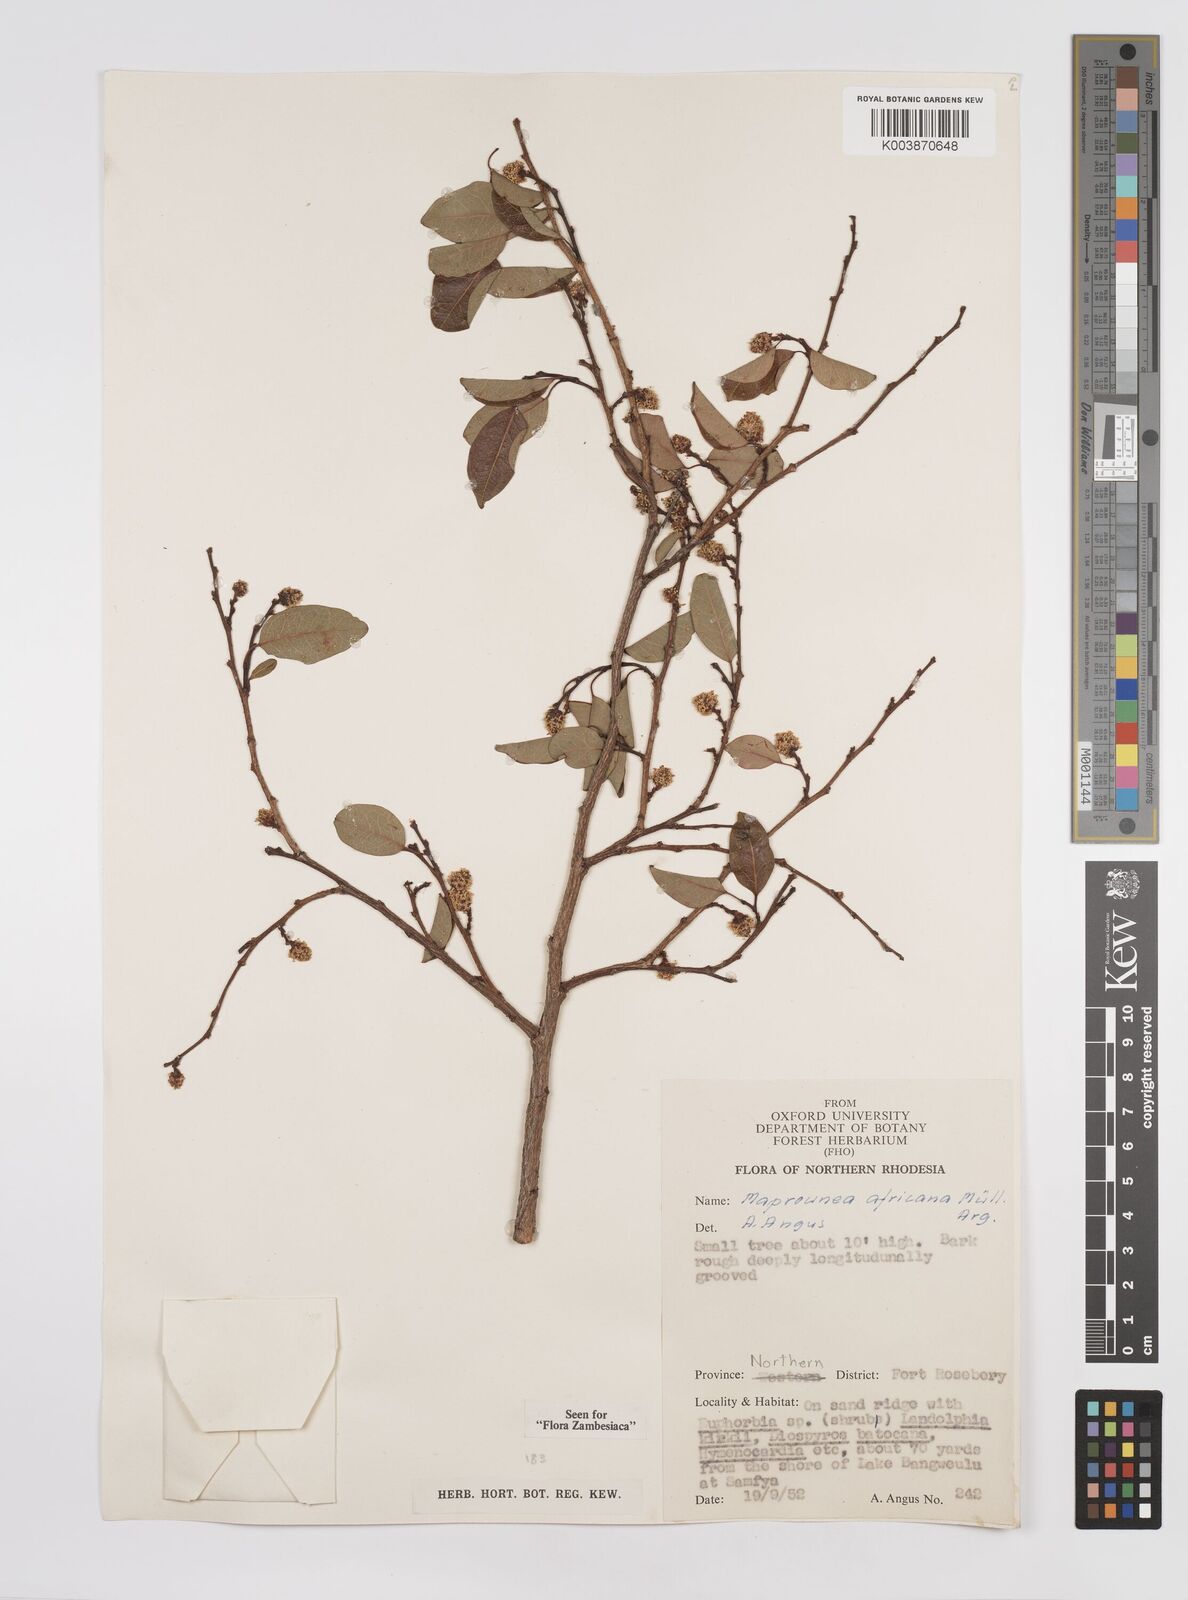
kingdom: Plantae
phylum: Tracheophyta
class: Magnoliopsida
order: Malpighiales
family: Euphorbiaceae
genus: Maprounea
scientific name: Maprounea africana
